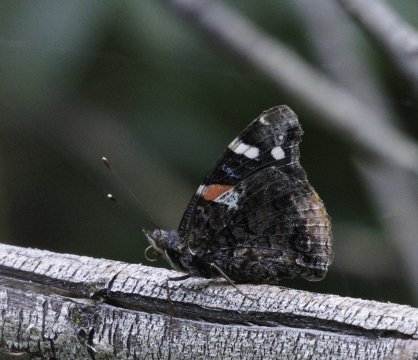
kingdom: Animalia
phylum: Arthropoda
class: Insecta
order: Lepidoptera
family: Nymphalidae
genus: Vanessa
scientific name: Vanessa atalanta
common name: Red Admiral
